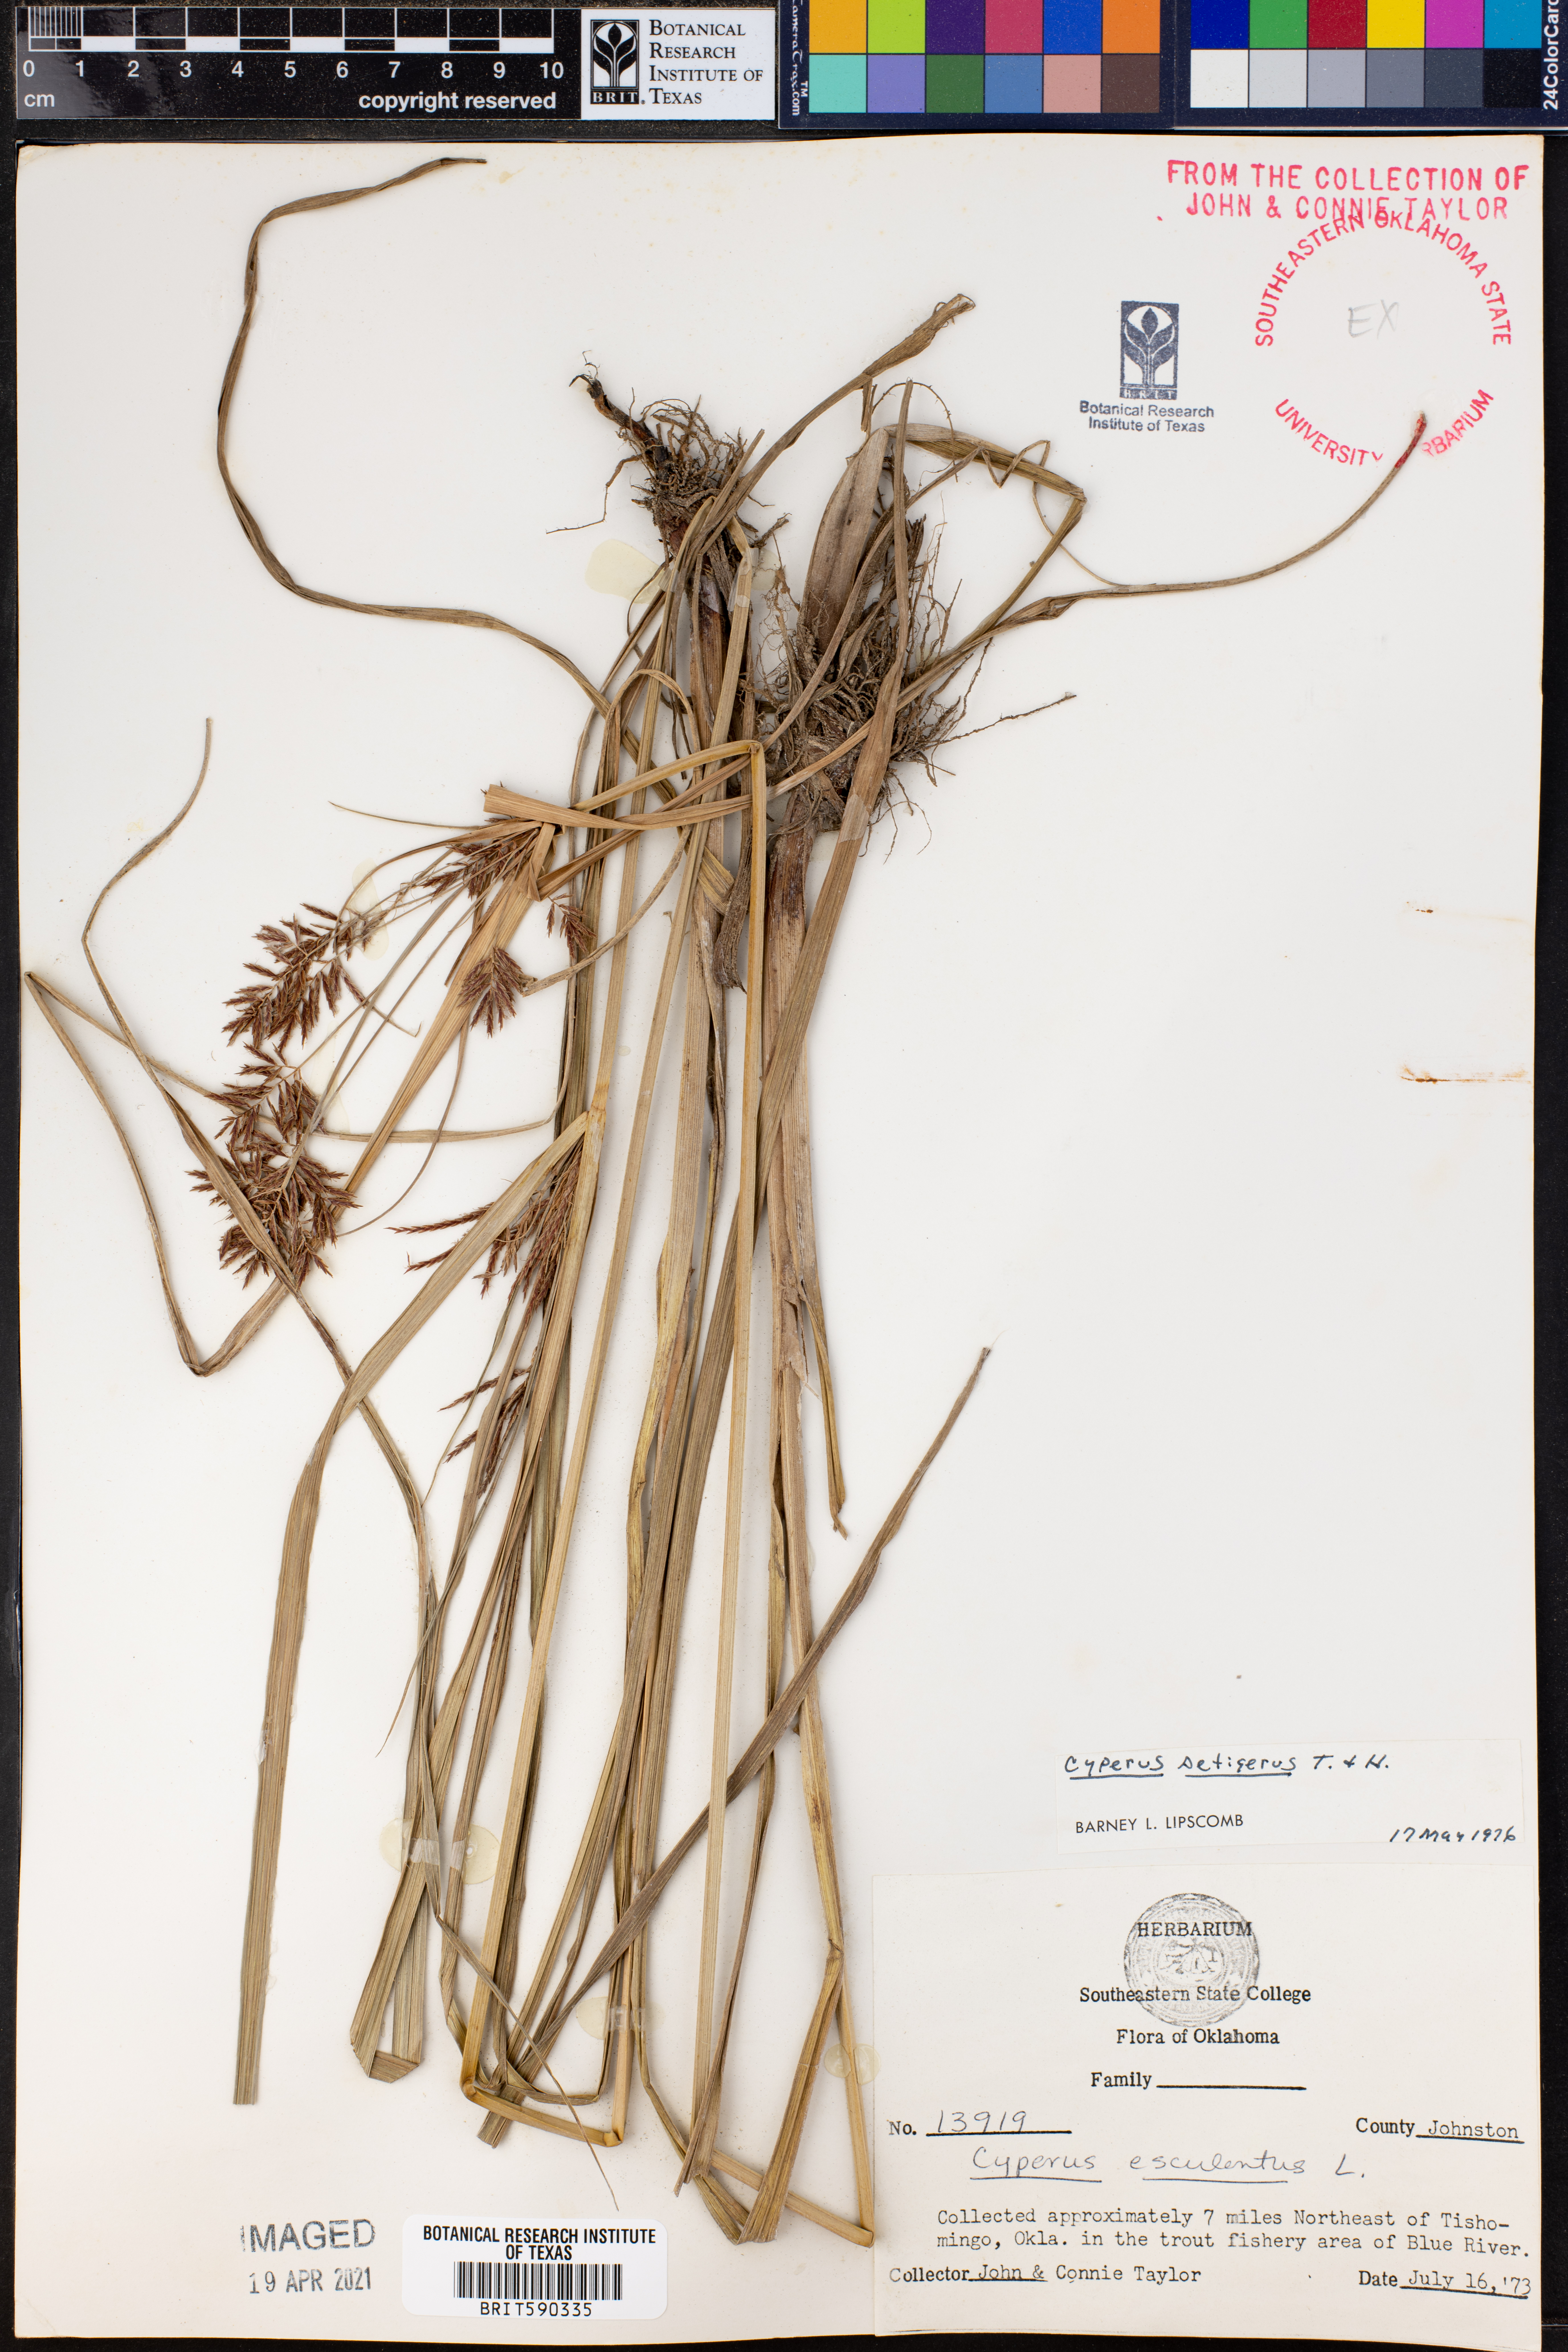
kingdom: Plantae
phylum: Tracheophyta
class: Liliopsida
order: Poales
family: Cyperaceae
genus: Cyperus
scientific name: Cyperus setigerus
